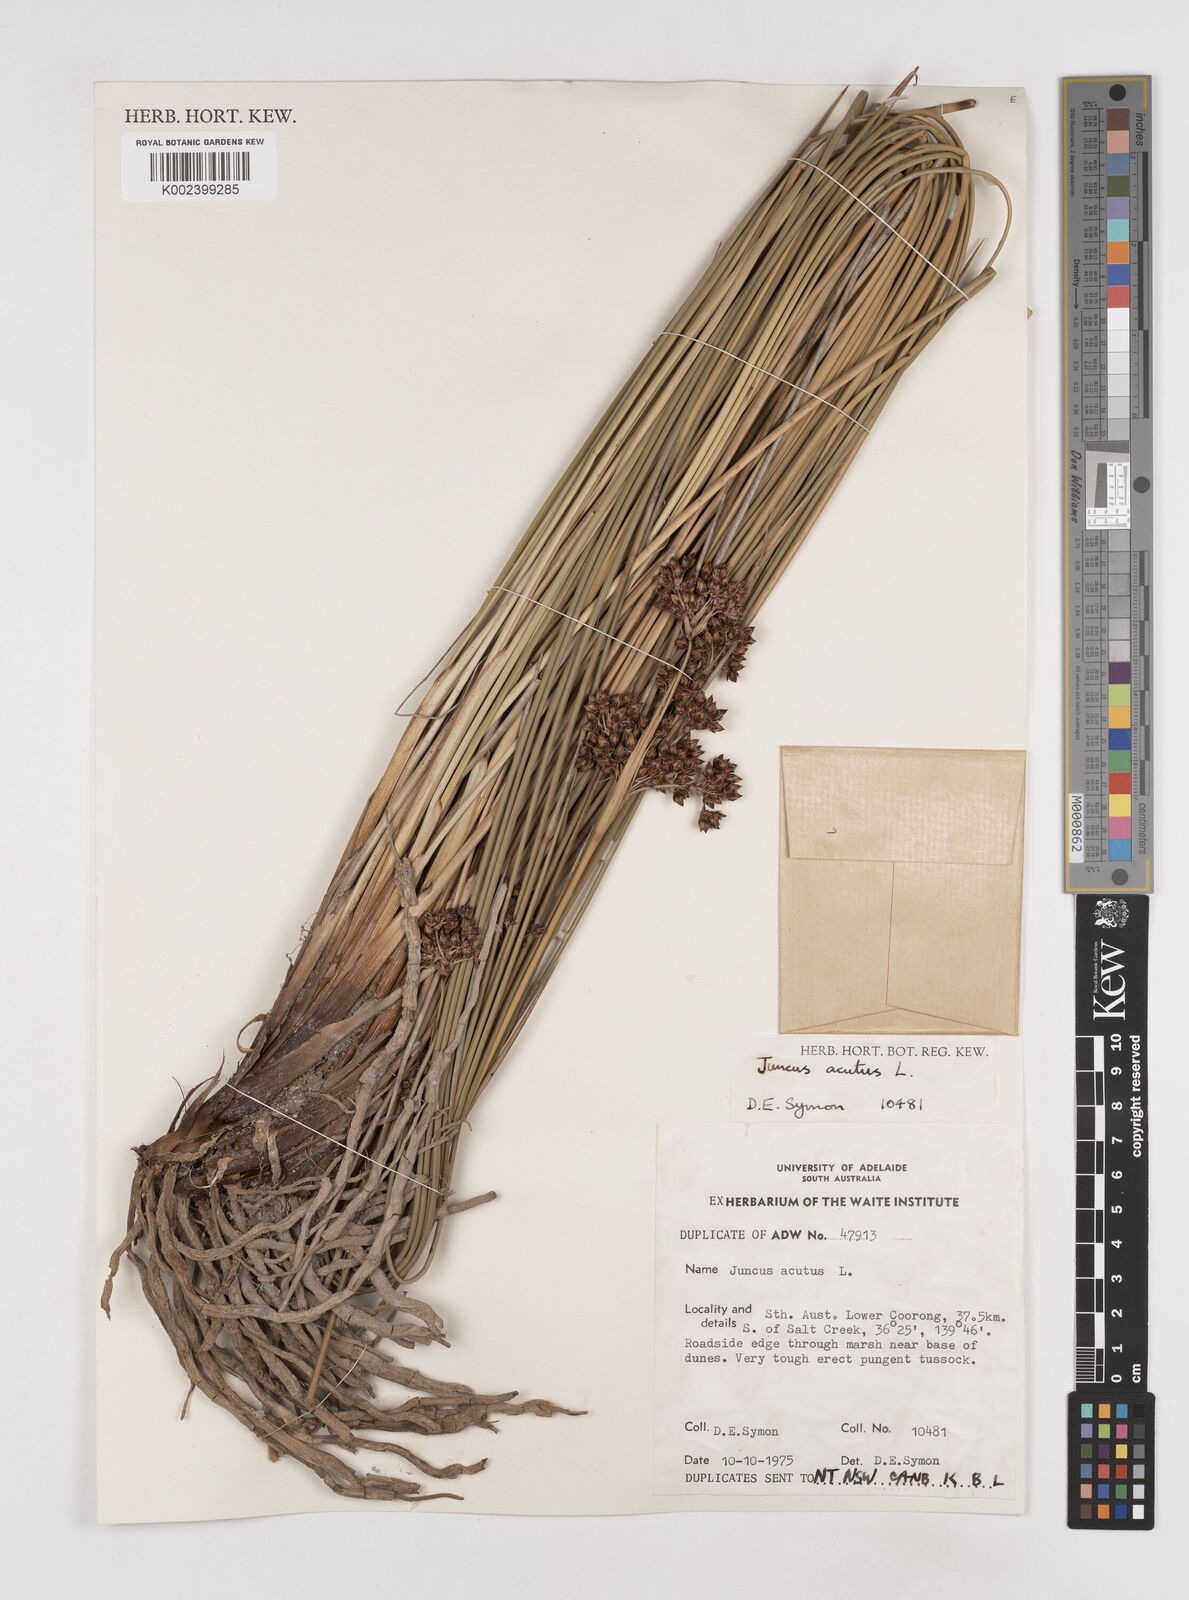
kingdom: Plantae
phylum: Tracheophyta
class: Liliopsida
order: Poales
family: Juncaceae
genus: Juncus
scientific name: Juncus acutus
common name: Sharp rush
